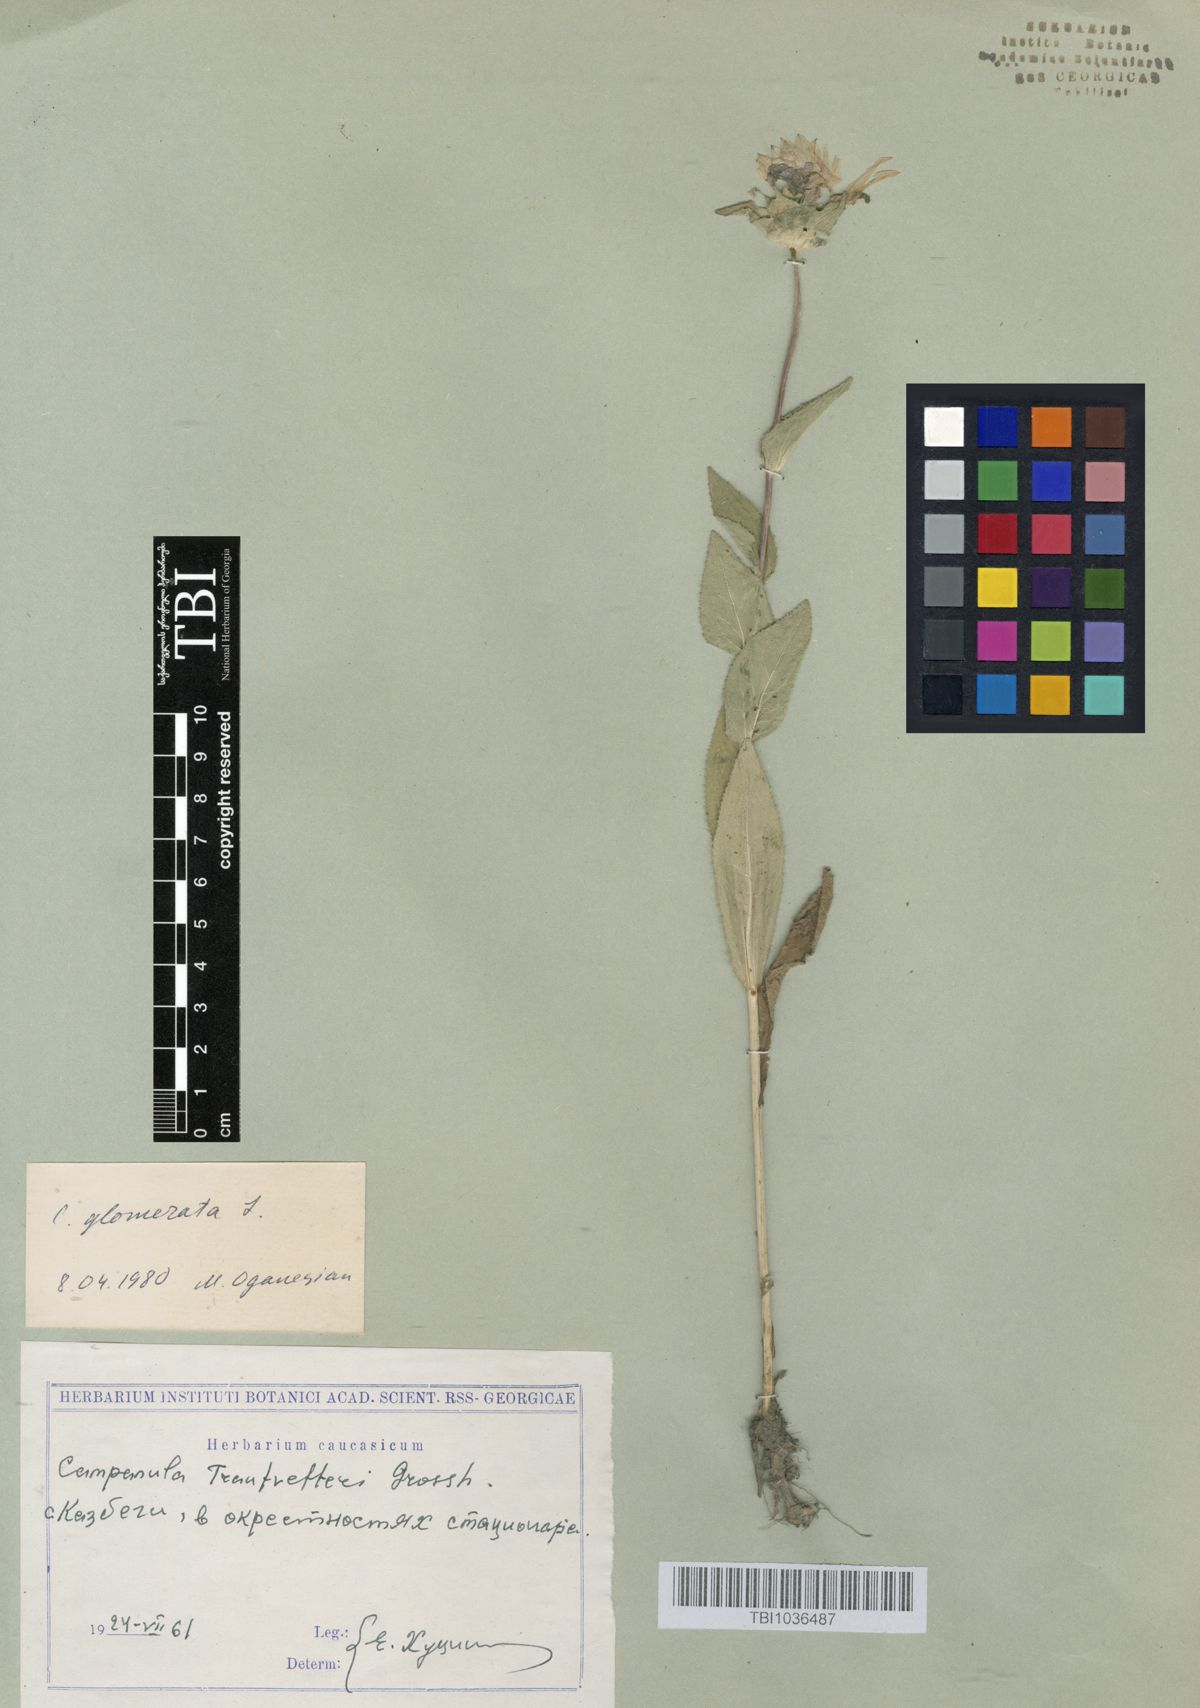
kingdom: Plantae
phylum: Tracheophyta
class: Magnoliopsida
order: Asterales
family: Campanulaceae
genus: Campanula
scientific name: Campanula glomerata
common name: Clustered bellflower
